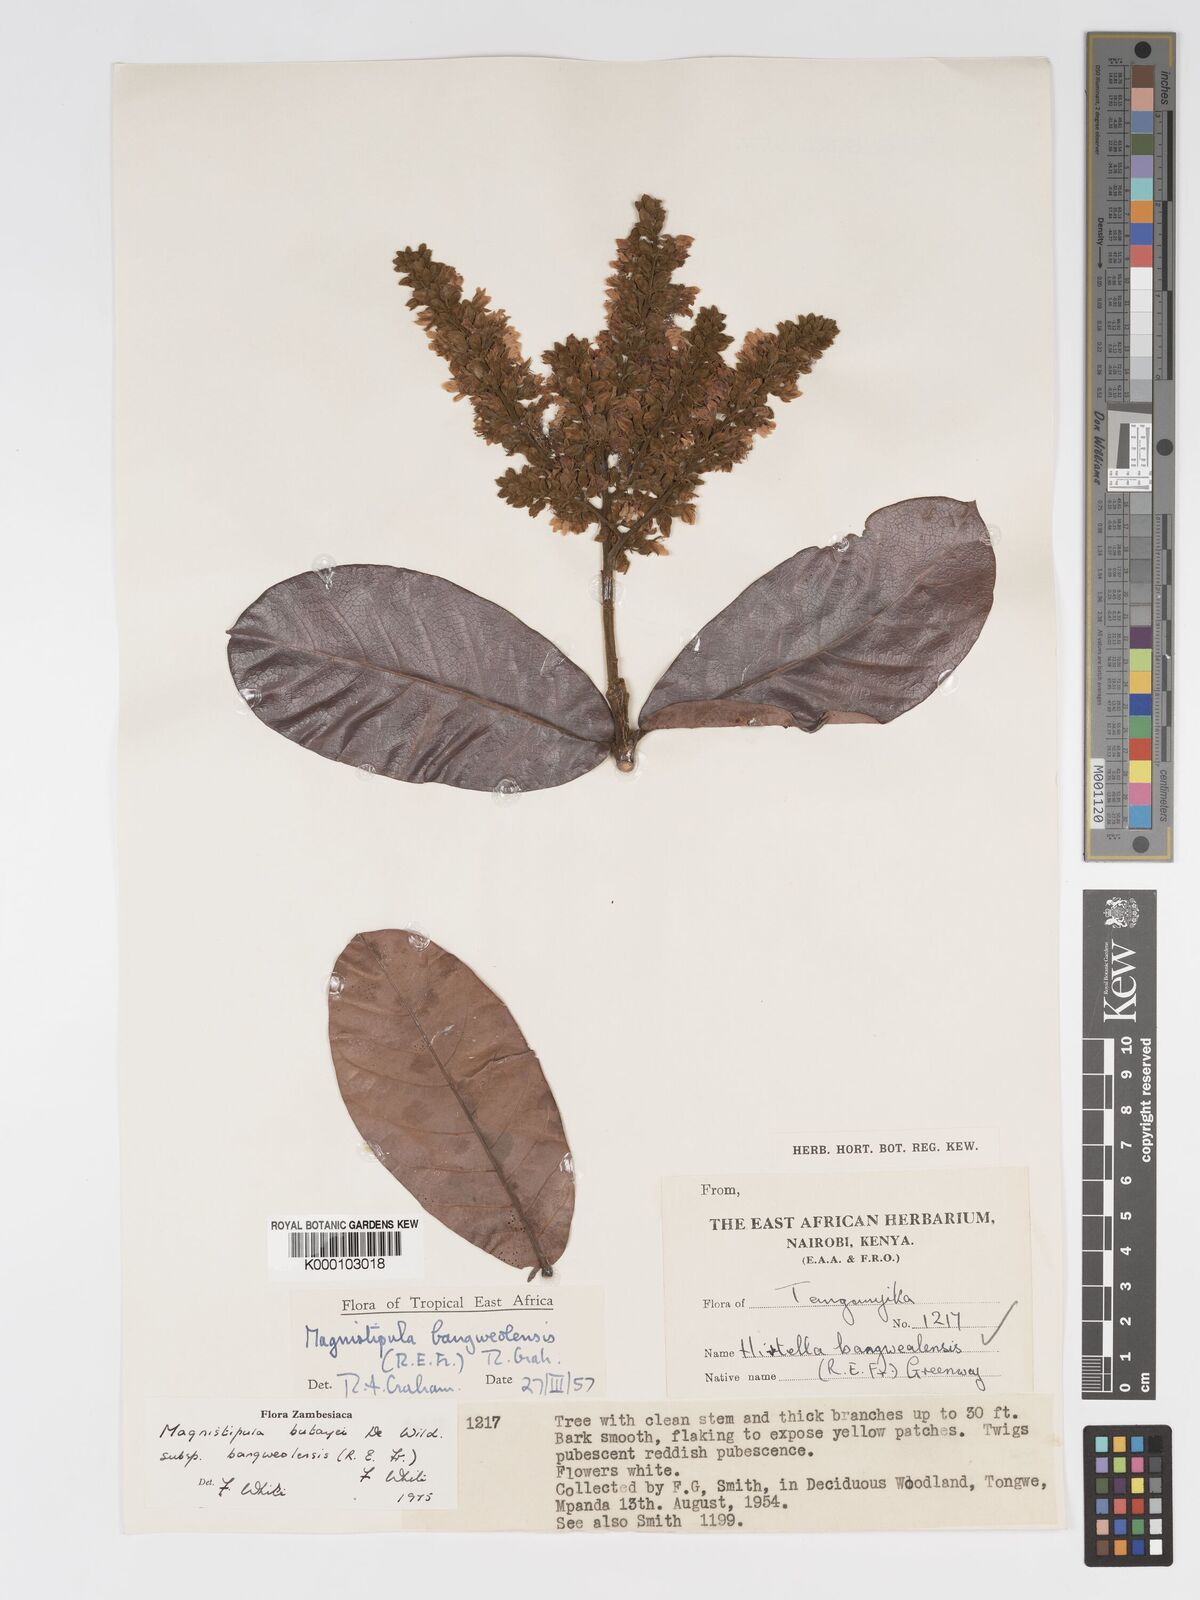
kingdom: Plantae
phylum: Tracheophyta
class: Magnoliopsida
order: Malpighiales
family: Chrysobalanaceae
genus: Magnistipula
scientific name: Magnistipula butayei
